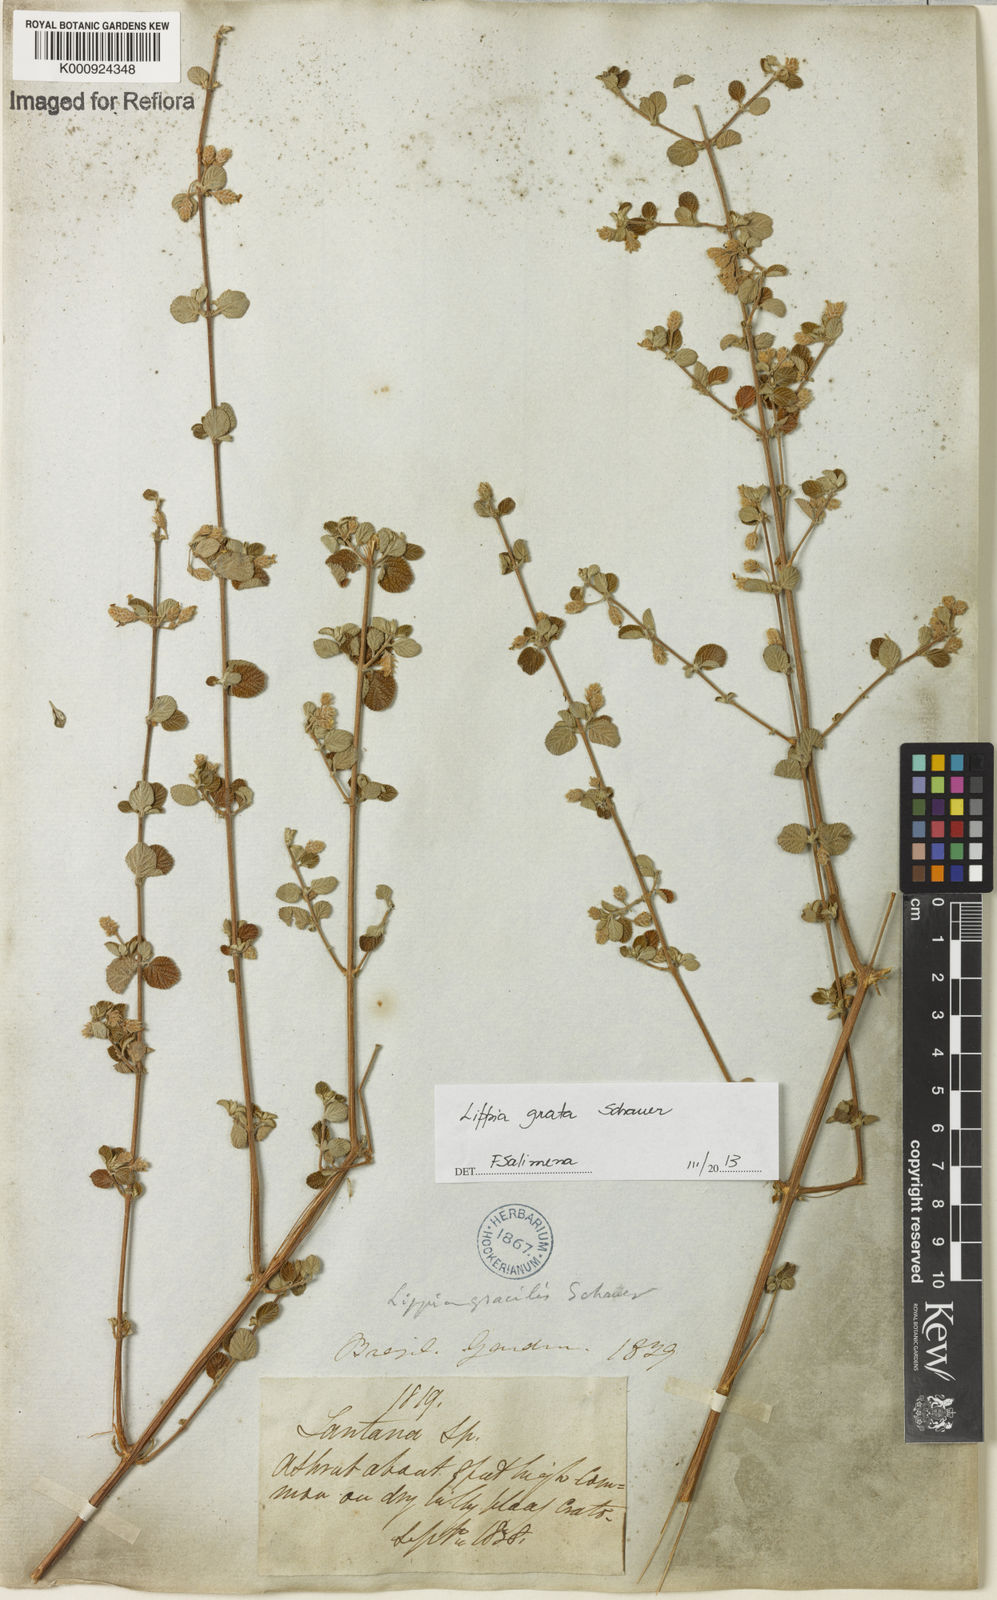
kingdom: Plantae
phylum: Tracheophyta
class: Magnoliopsida
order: Lamiales
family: Verbenaceae
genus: Lippia
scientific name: Lippia grata
